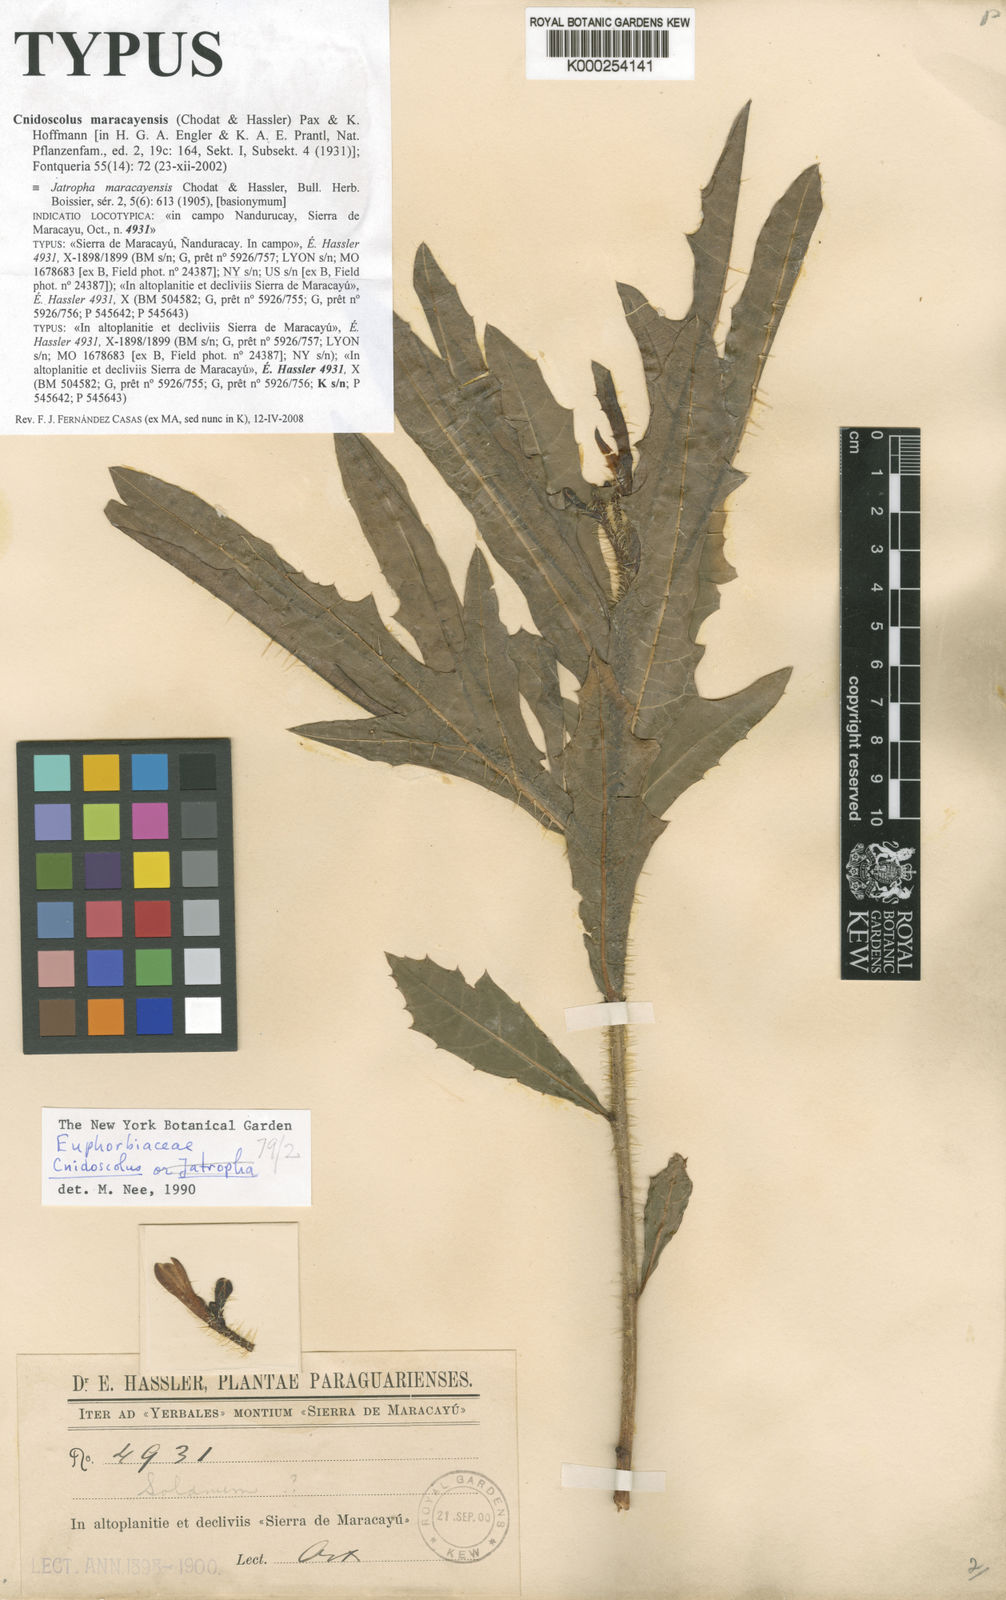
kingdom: Plantae
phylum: Tracheophyta
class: Magnoliopsida
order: Malpighiales
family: Euphorbiaceae
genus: Cnidoscolus
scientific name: Cnidoscolus maracayensis
